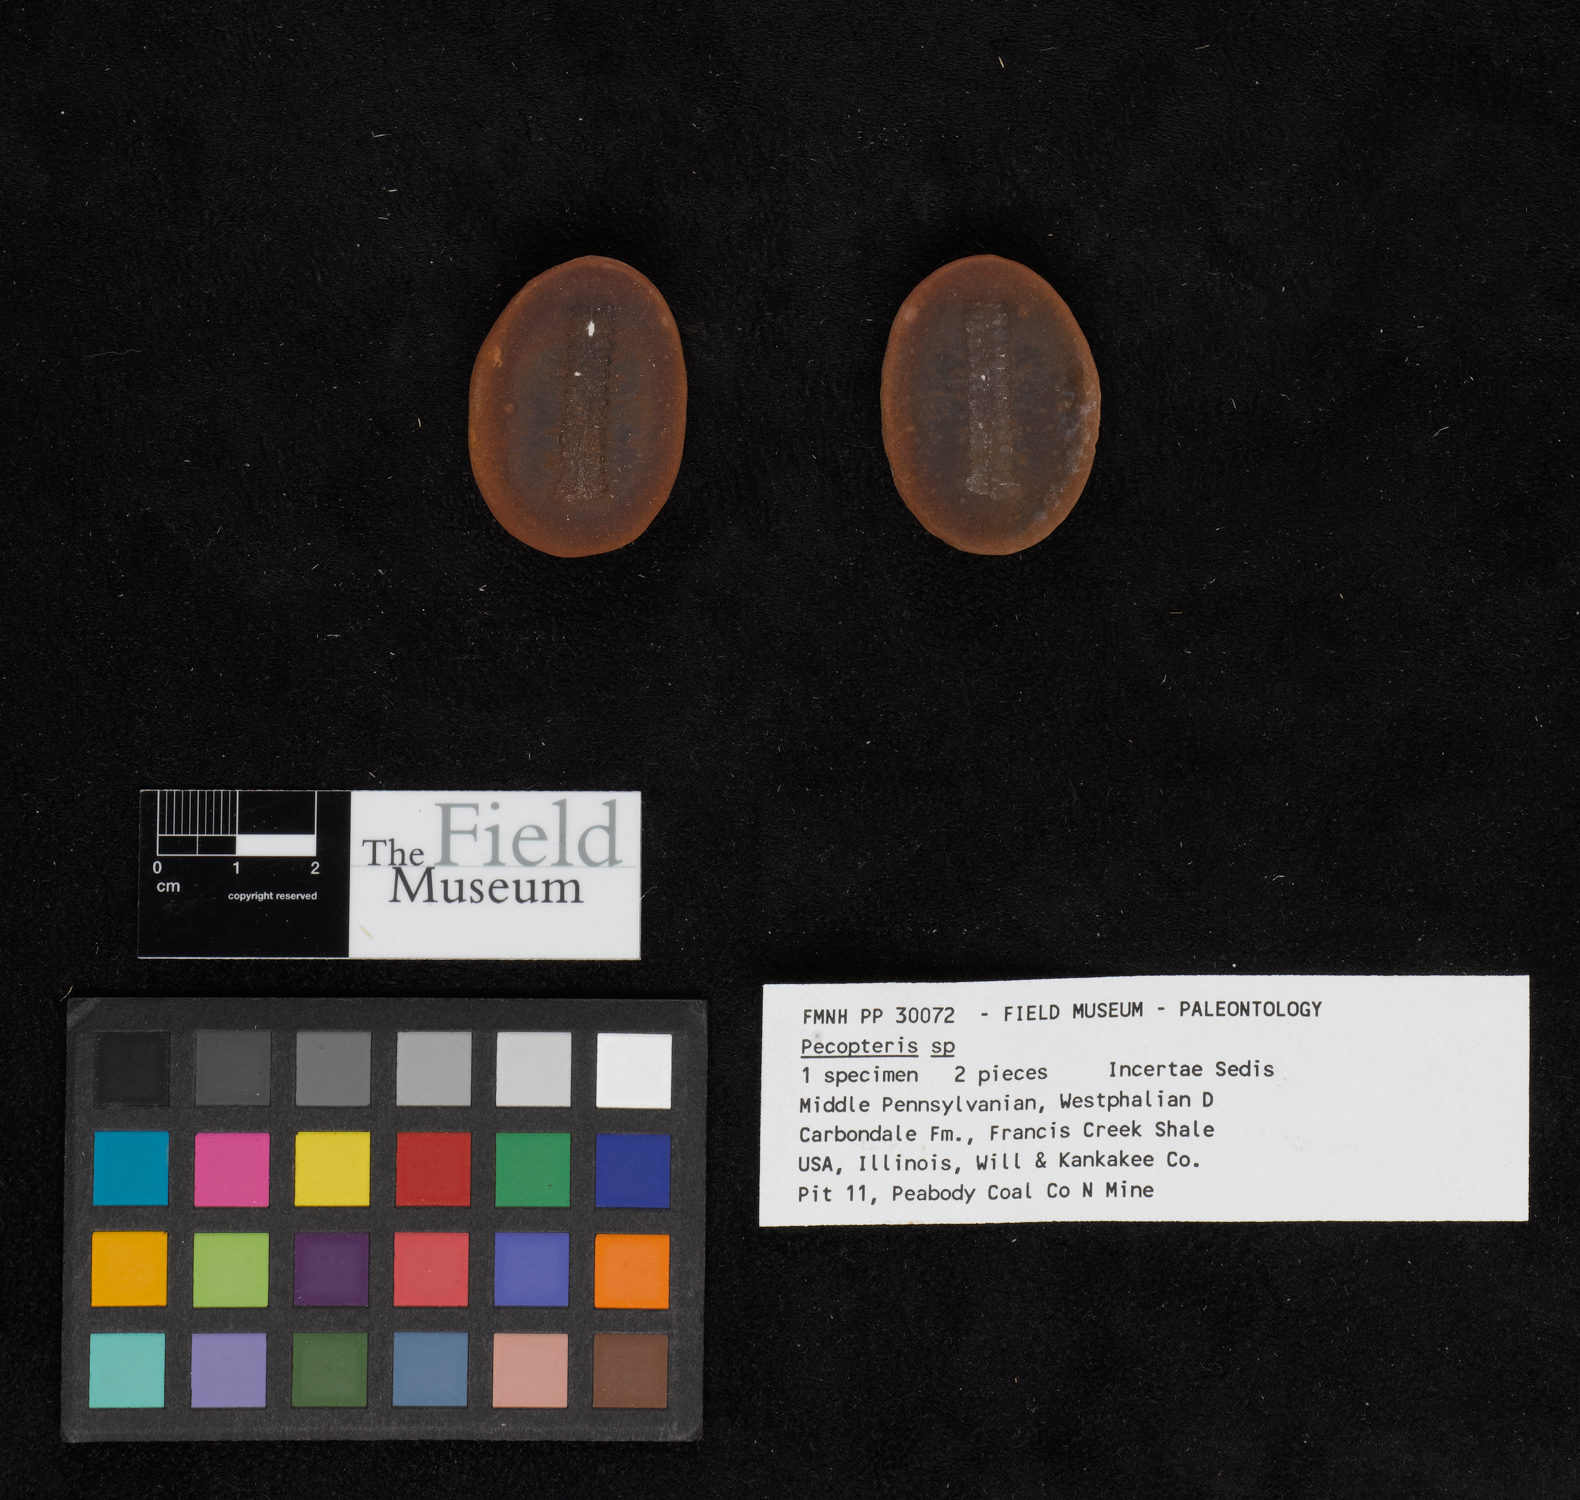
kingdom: Plantae
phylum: Tracheophyta
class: Polypodiopsida
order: Marattiales
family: Asterothecaceae
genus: Pecopteris
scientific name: Pecopteris
